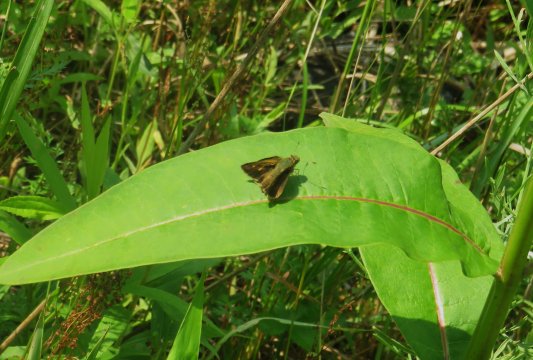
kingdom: Animalia
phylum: Arthropoda
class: Insecta
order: Lepidoptera
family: Hesperiidae
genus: Polites
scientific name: Polites egeremet
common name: Northern Broken-Dash
